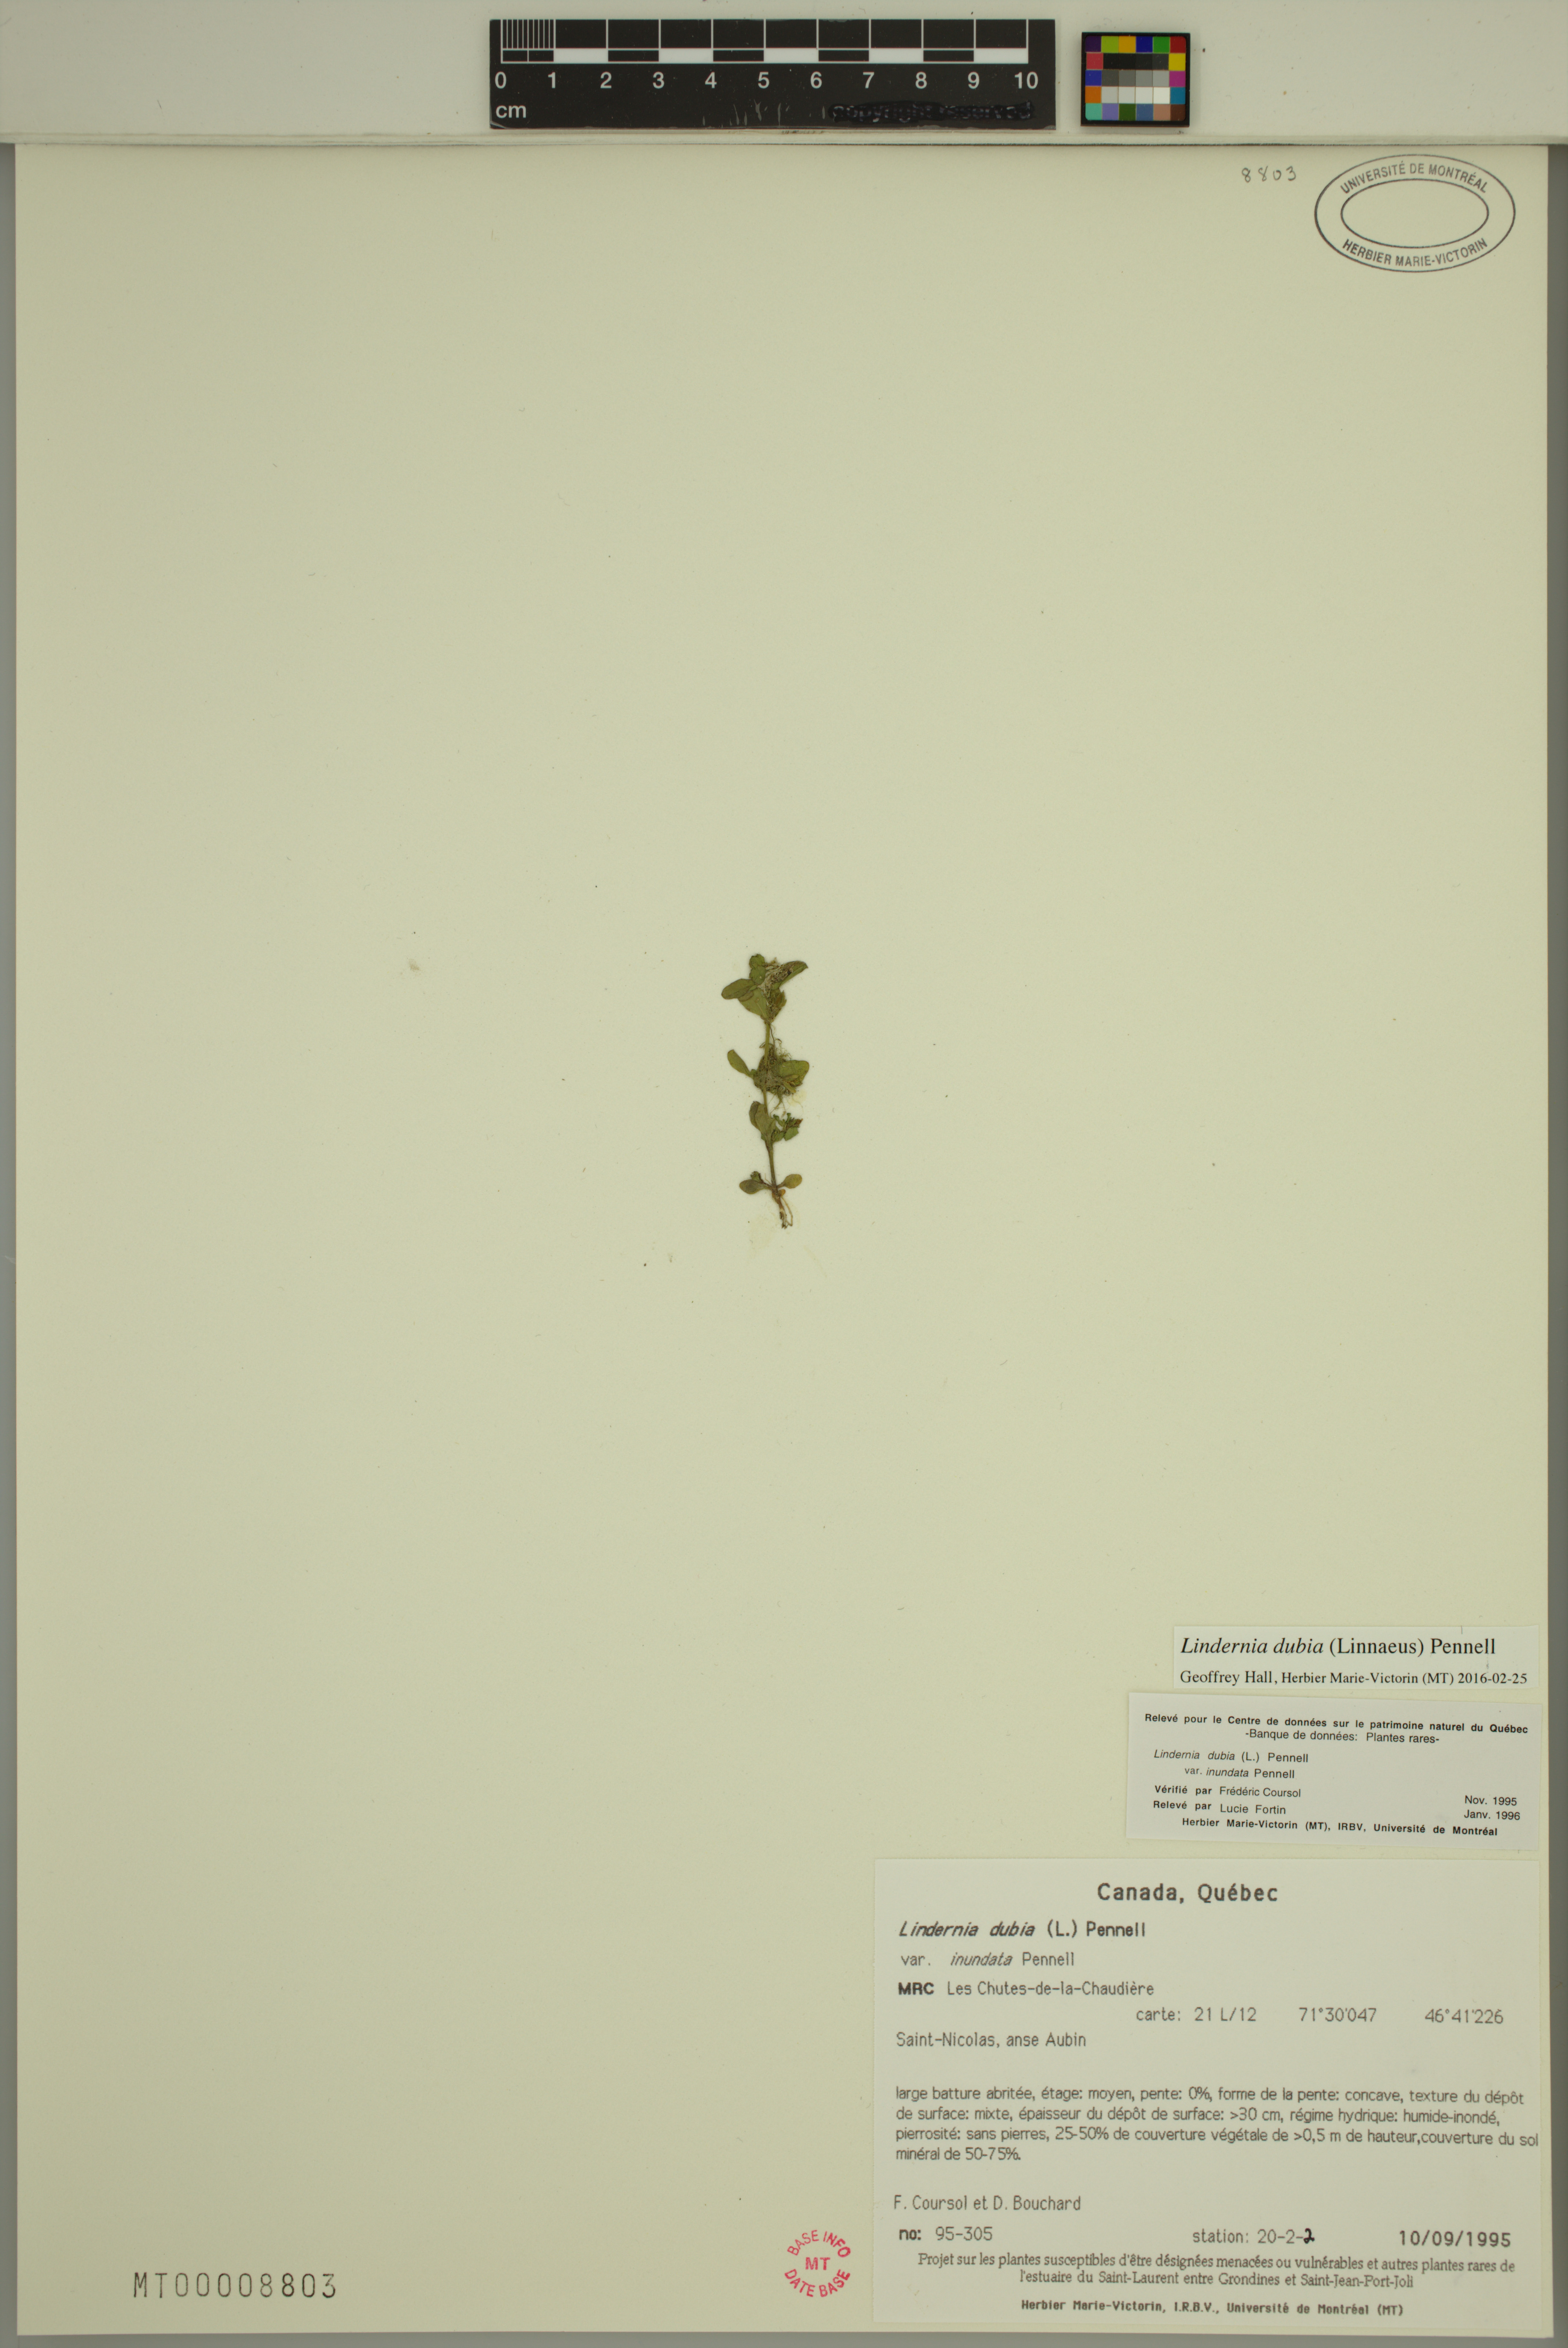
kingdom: Plantae
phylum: Tracheophyta
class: Magnoliopsida
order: Lamiales
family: Linderniaceae
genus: Lindernia
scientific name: Lindernia dubia
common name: Annual false pimpernel
